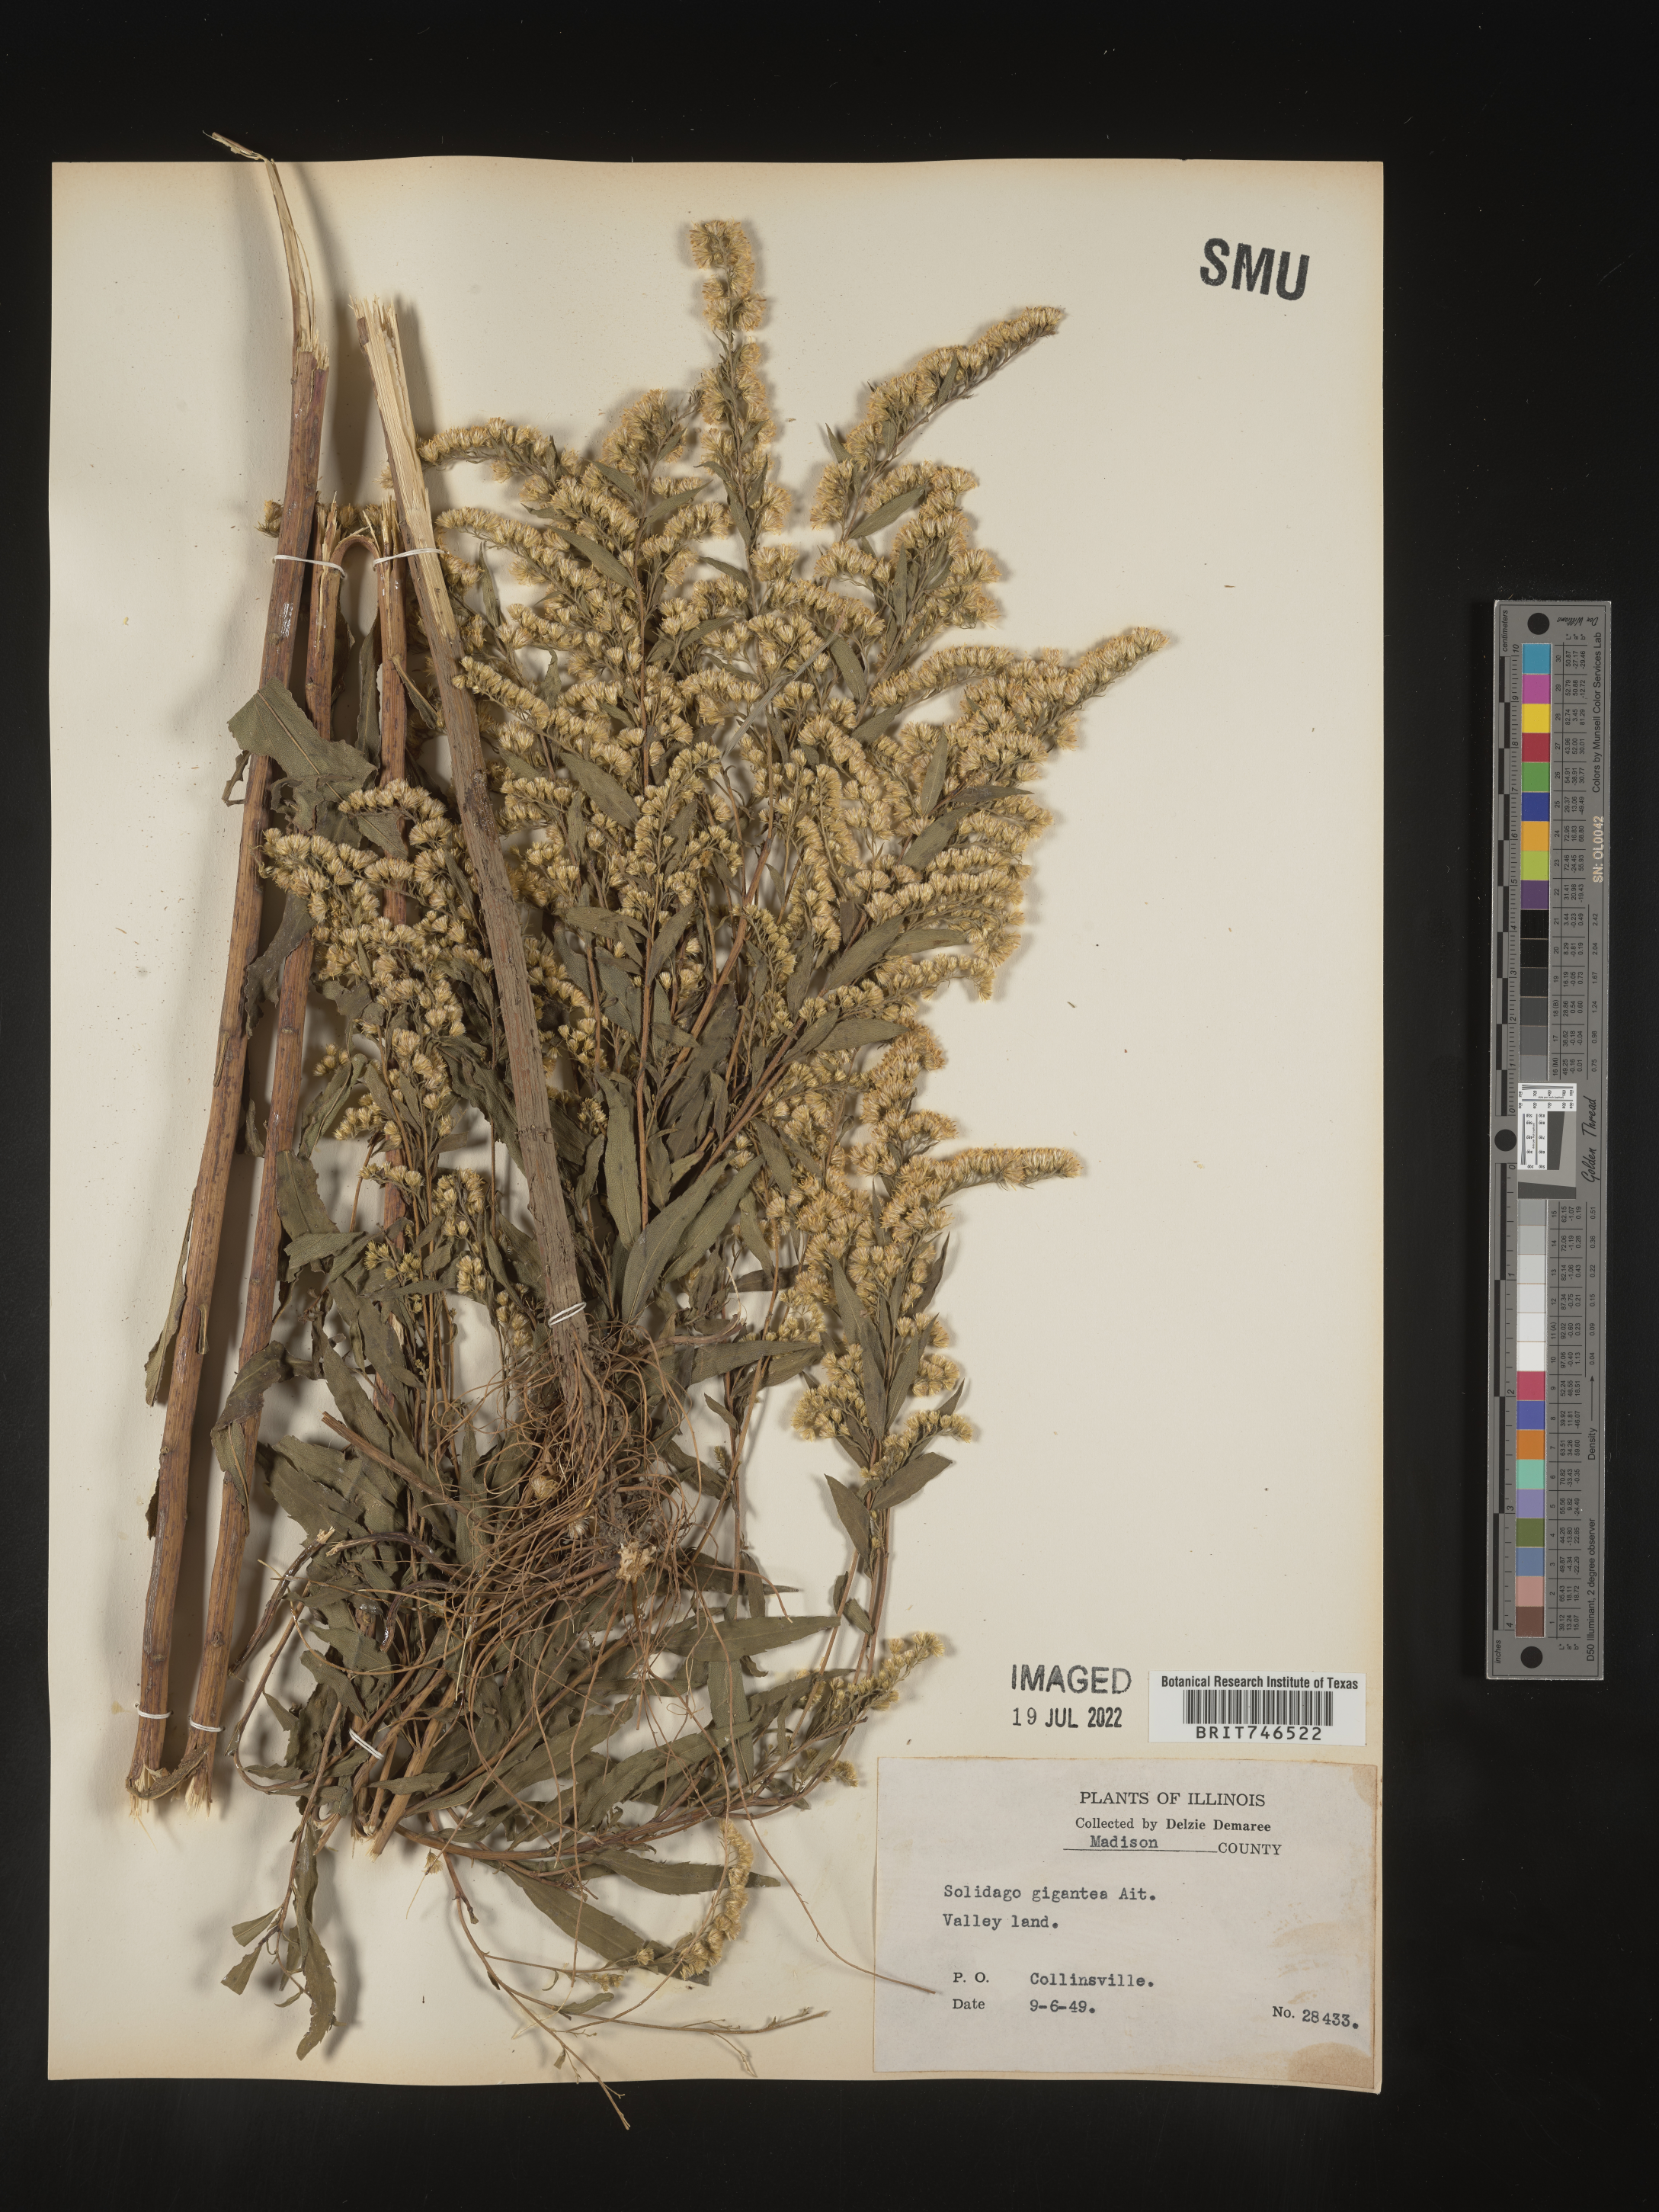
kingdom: Plantae
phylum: Tracheophyta
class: Magnoliopsida
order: Asterales
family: Asteraceae
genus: Solidago
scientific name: Solidago gigantea
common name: Giant goldenrod
